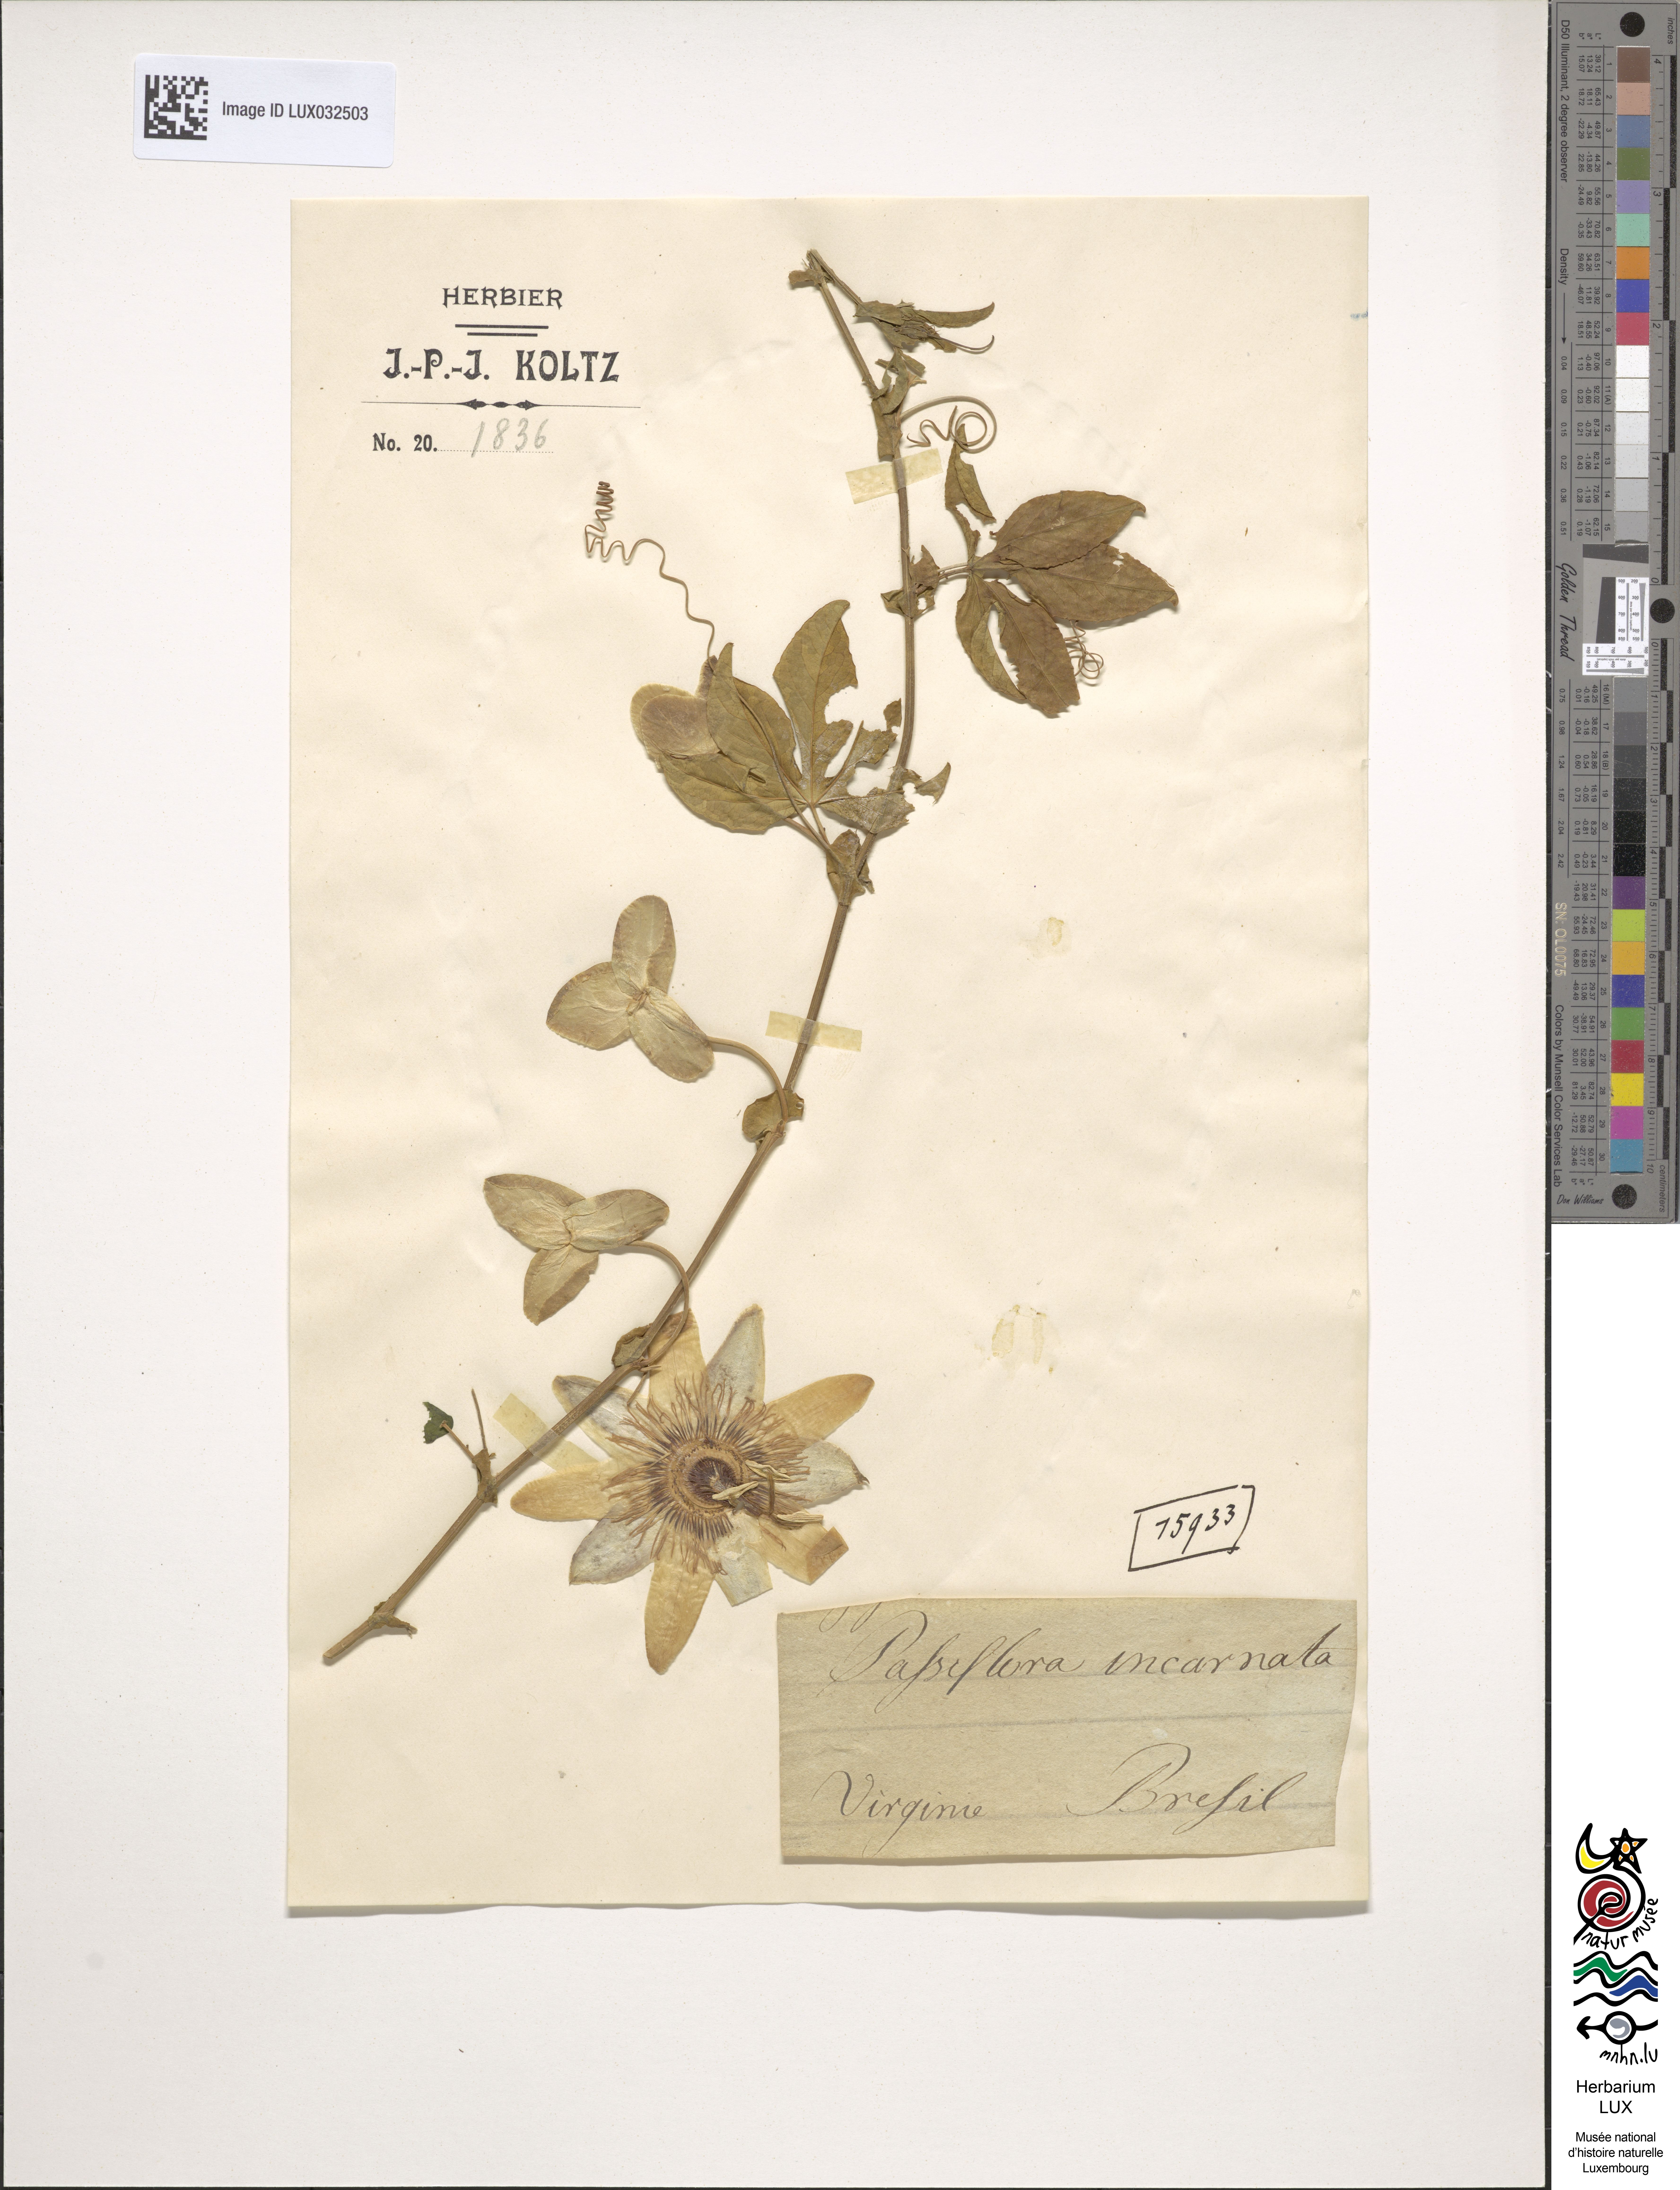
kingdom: Plantae
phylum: Tracheophyta
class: Magnoliopsida
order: Malpighiales
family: Passifloraceae
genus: Passiflora
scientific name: Passiflora incarnata
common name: Apricot-vine
